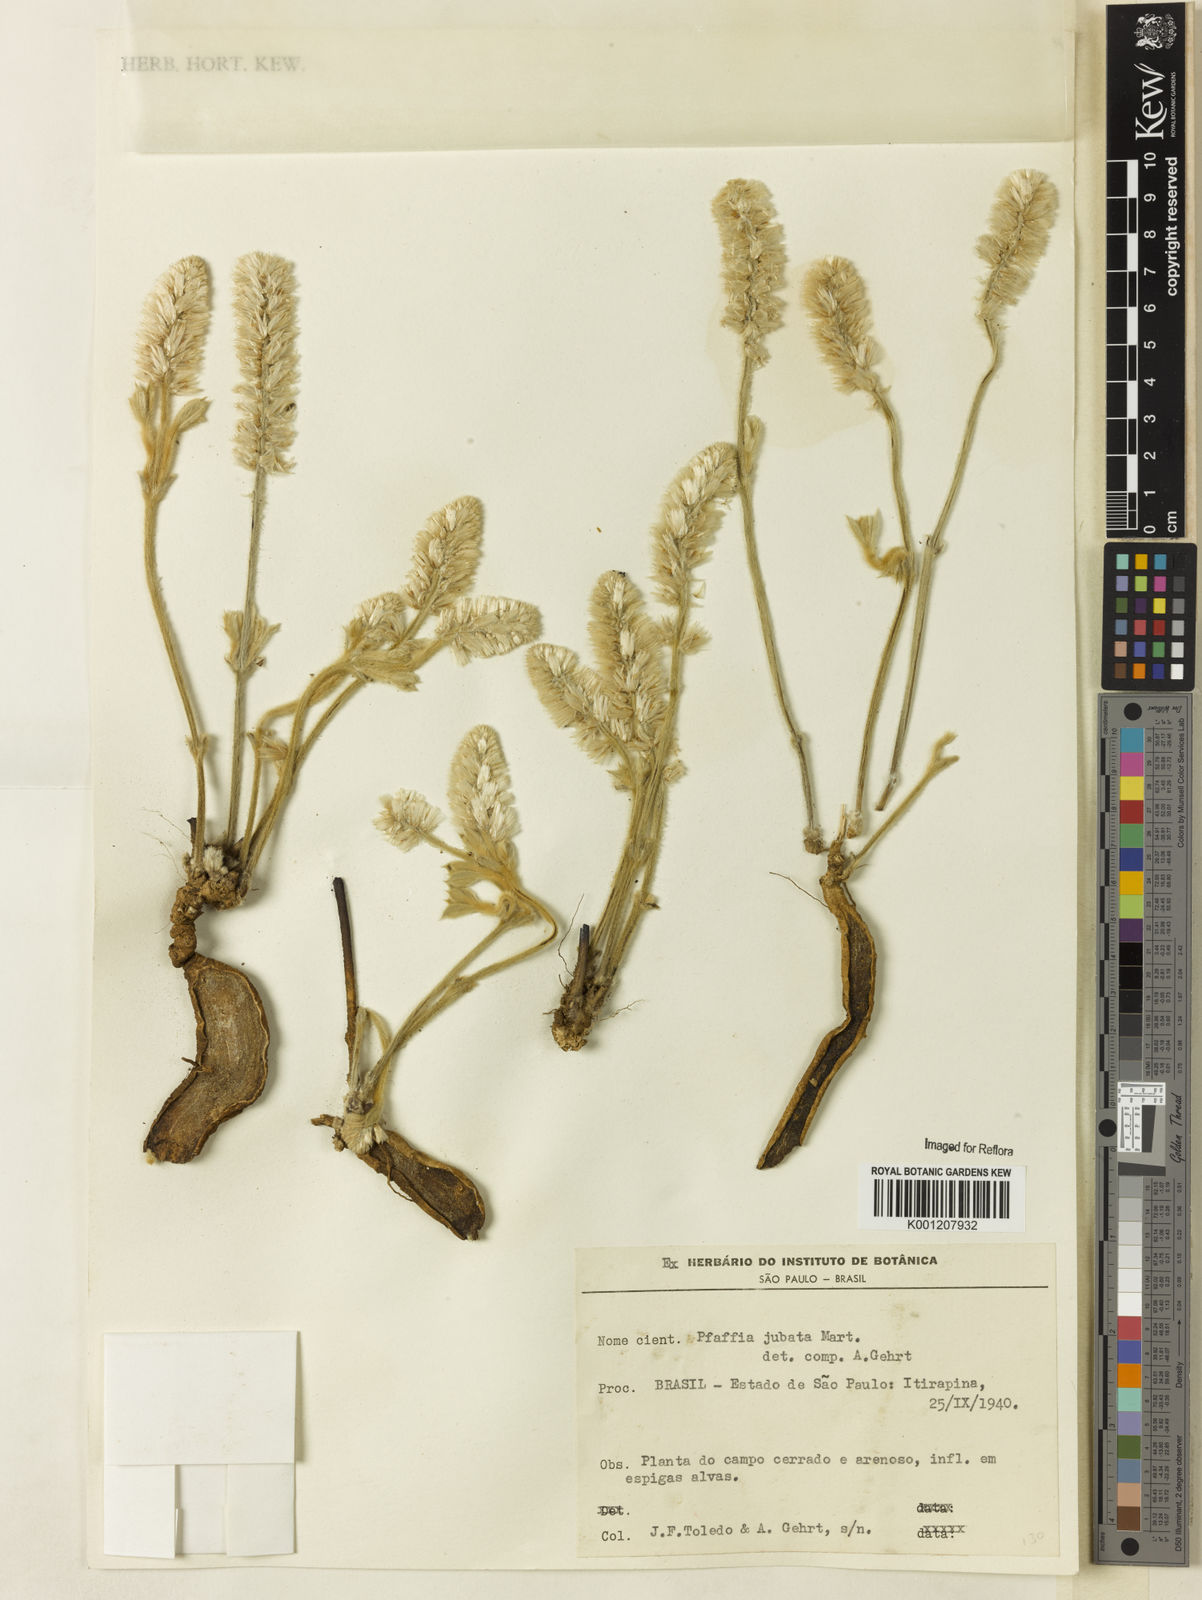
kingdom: Plantae
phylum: Tracheophyta
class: Magnoliopsida
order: Caryophyllales
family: Amaranthaceae
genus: Pfaffia
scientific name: Pfaffia jubata
